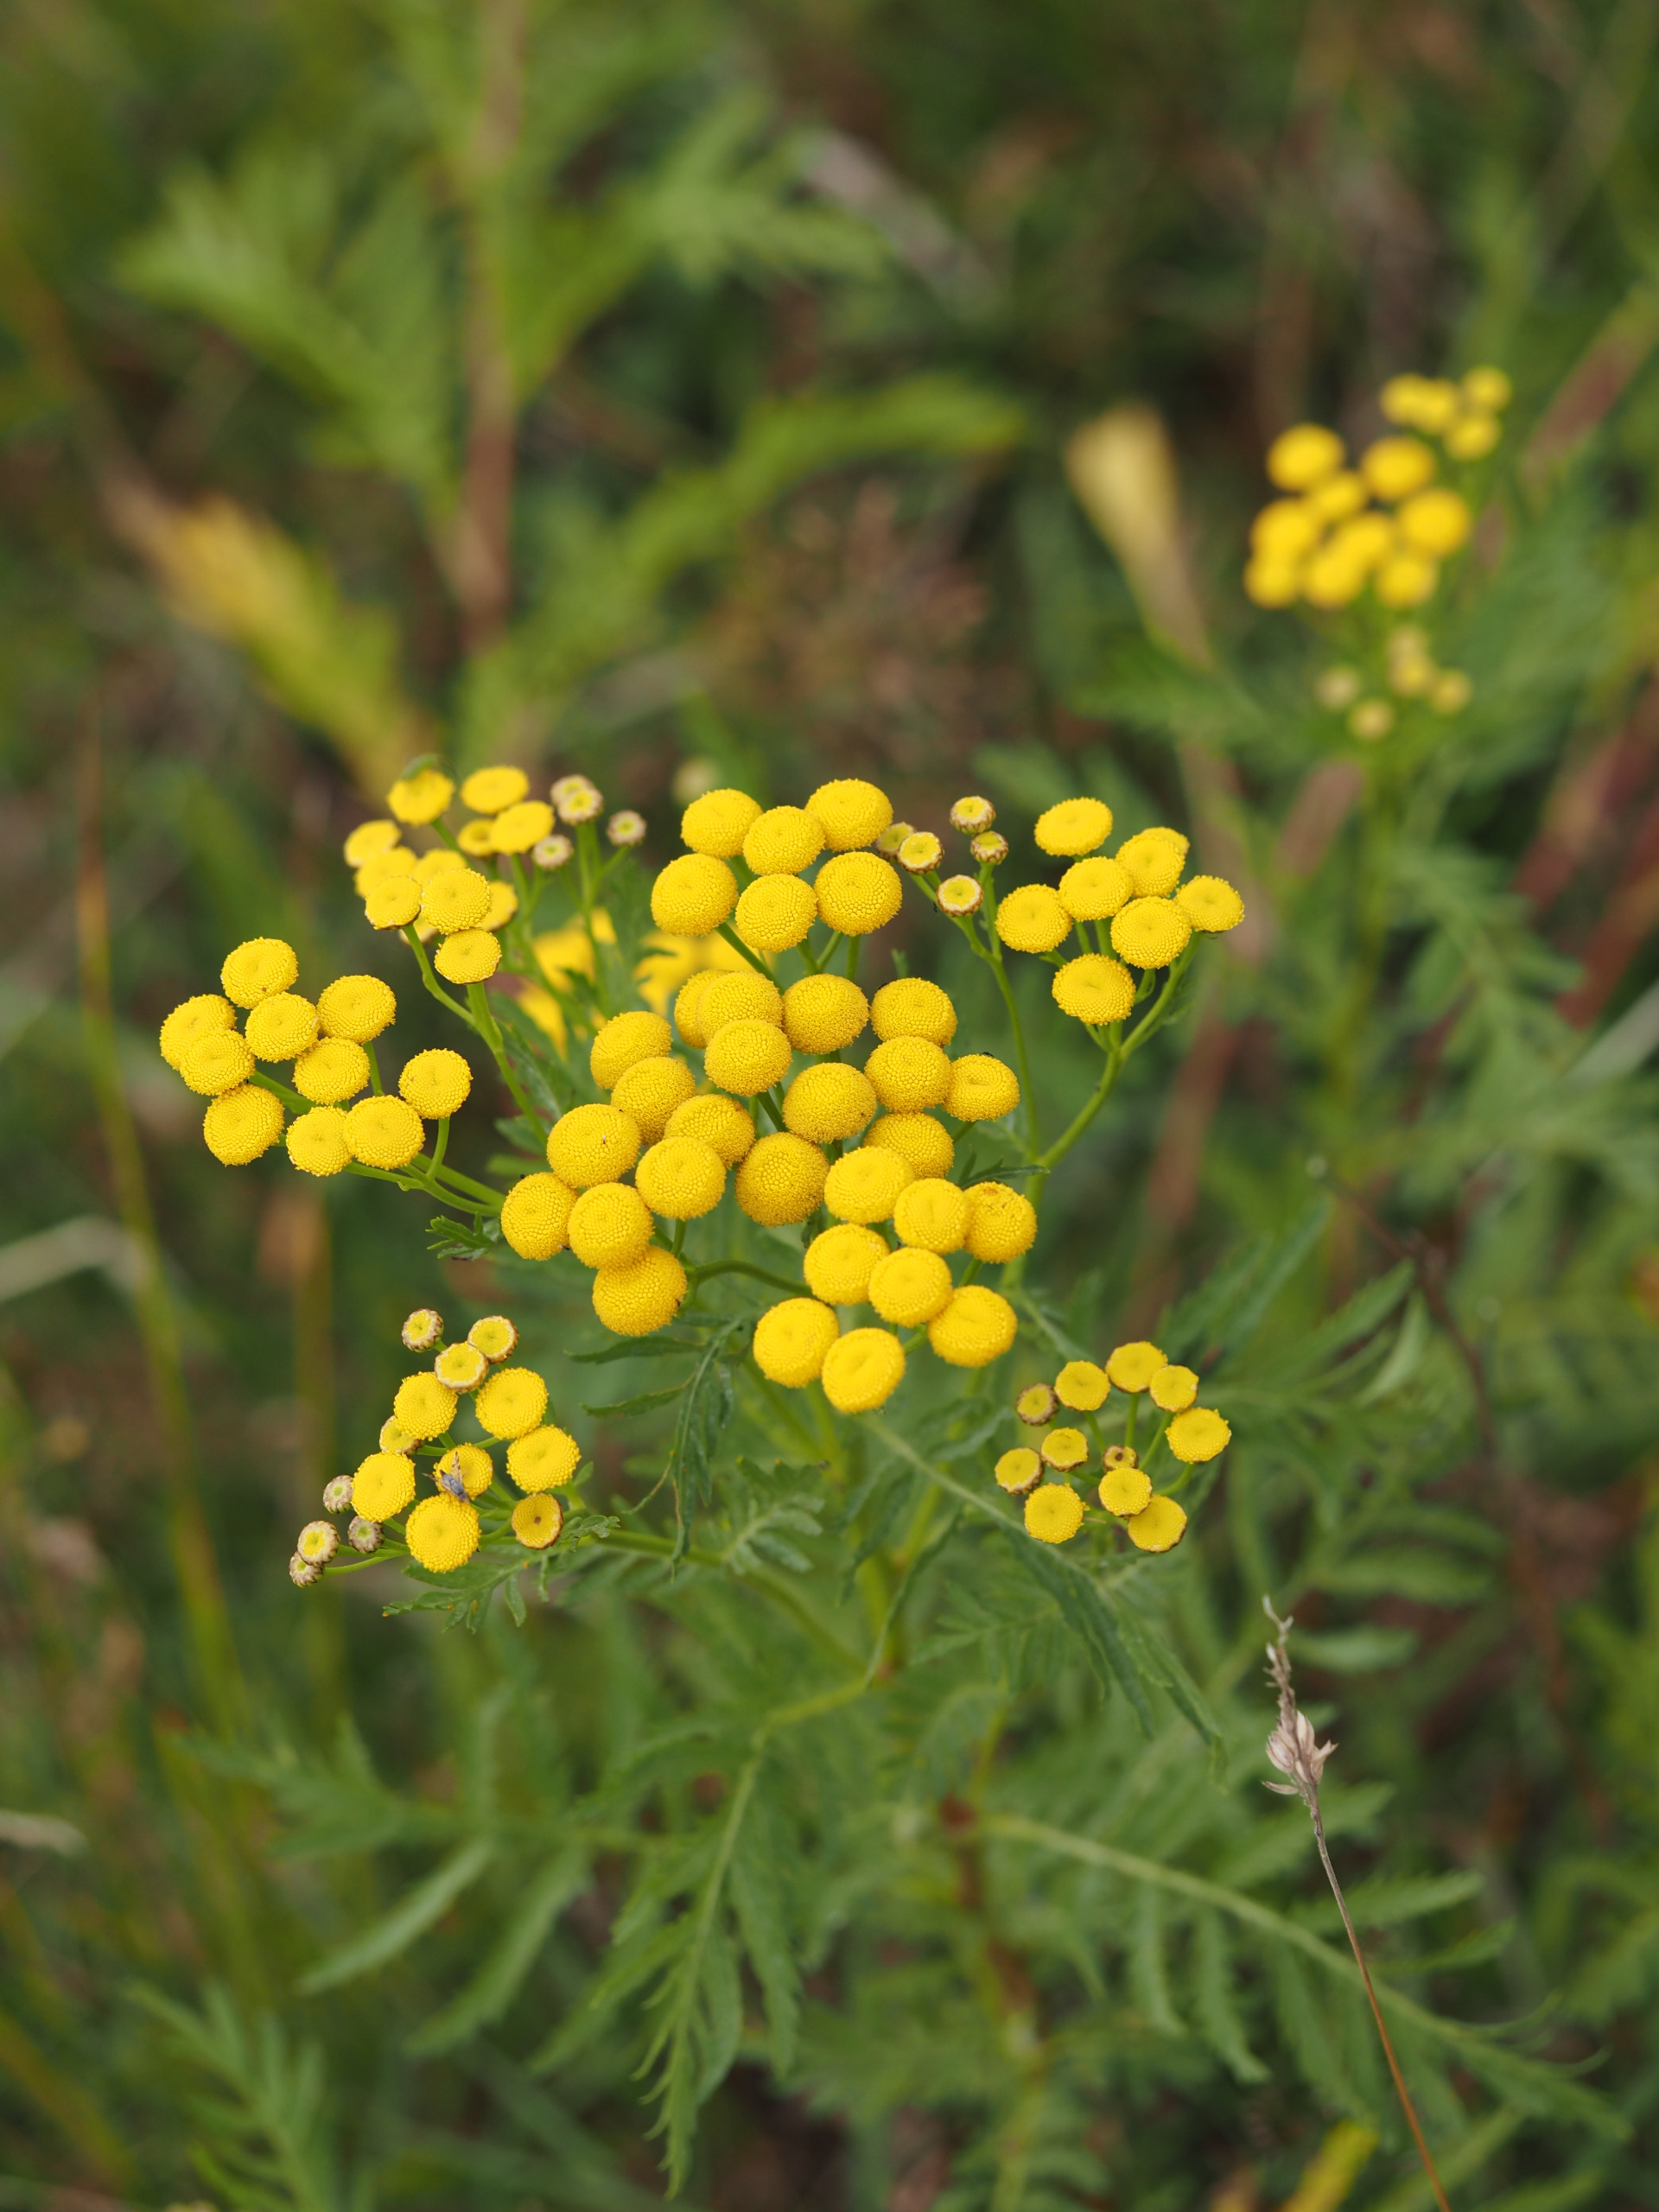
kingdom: Plantae
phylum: Tracheophyta
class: Magnoliopsida
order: Asterales
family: Asteraceae
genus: Tanacetum
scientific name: Tanacetum vulgare
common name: Rejnfan
